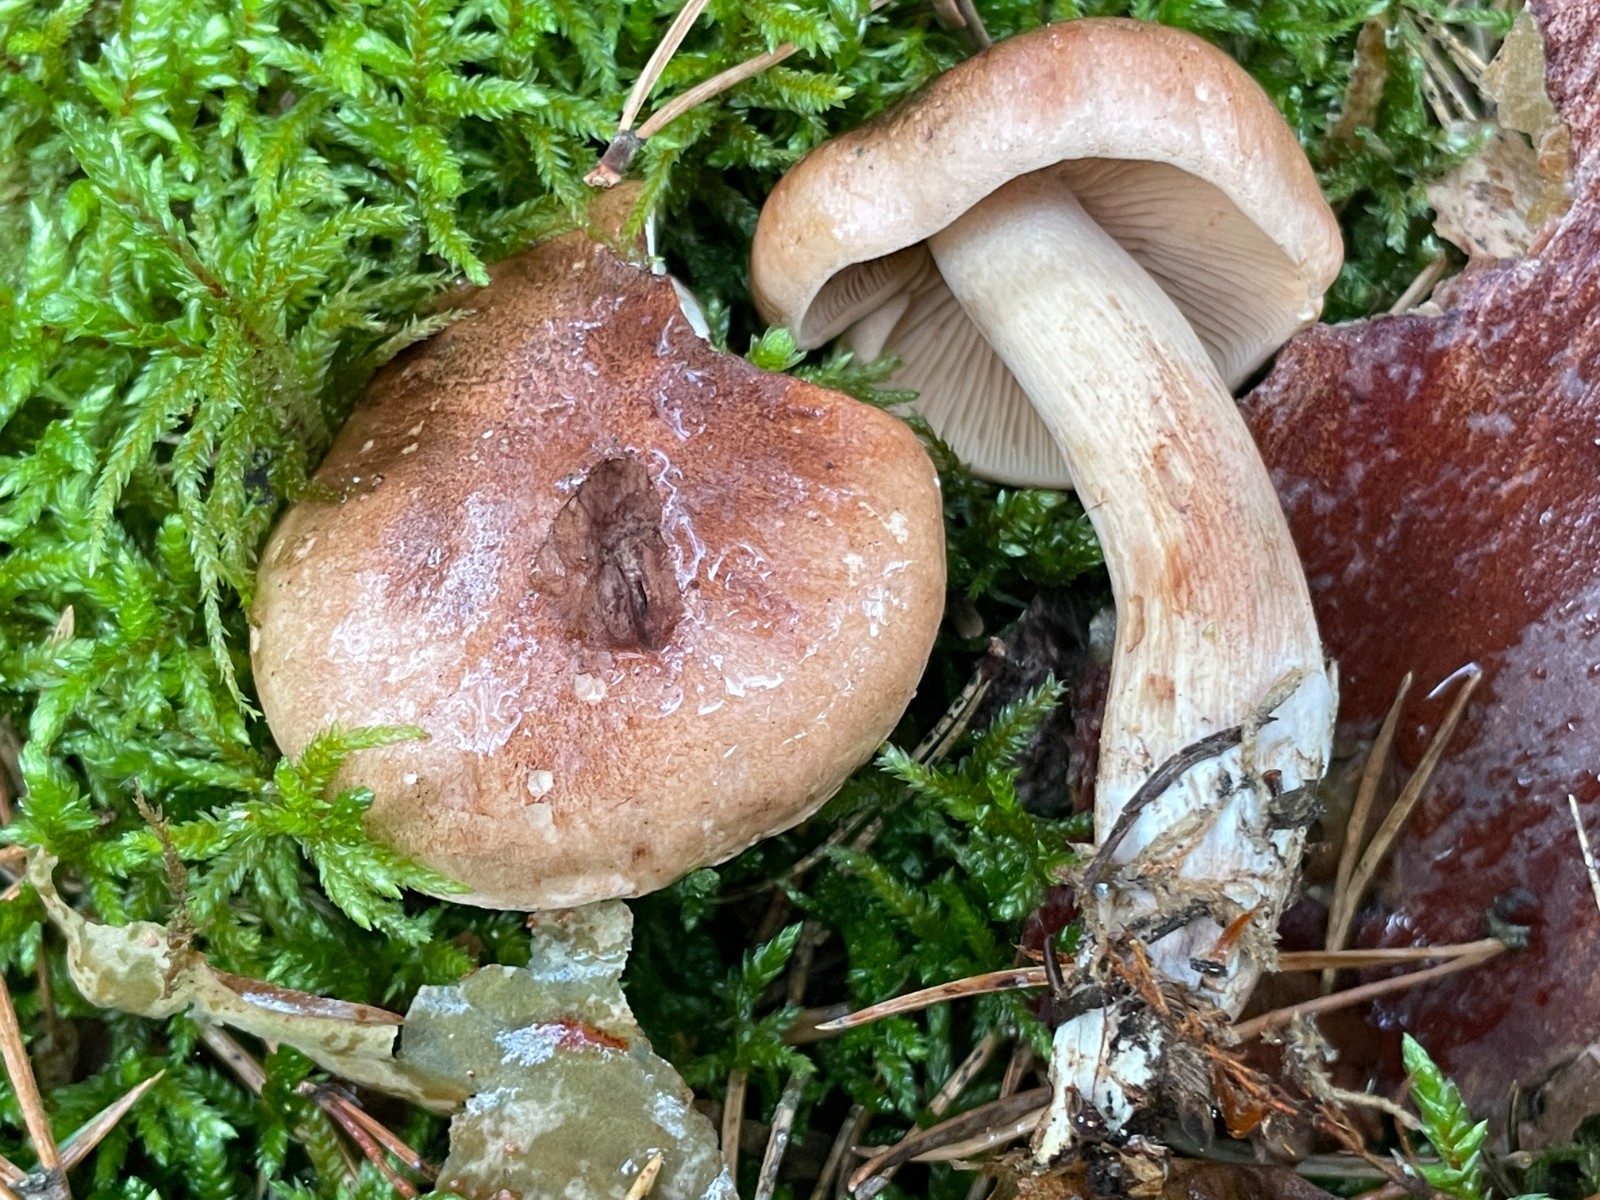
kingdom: Fungi
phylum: Basidiomycota
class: Agaricomycetes
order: Agaricales
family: Tricholomataceae
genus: Tricholoma
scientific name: Tricholoma fulvum
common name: birke-ridderhat
